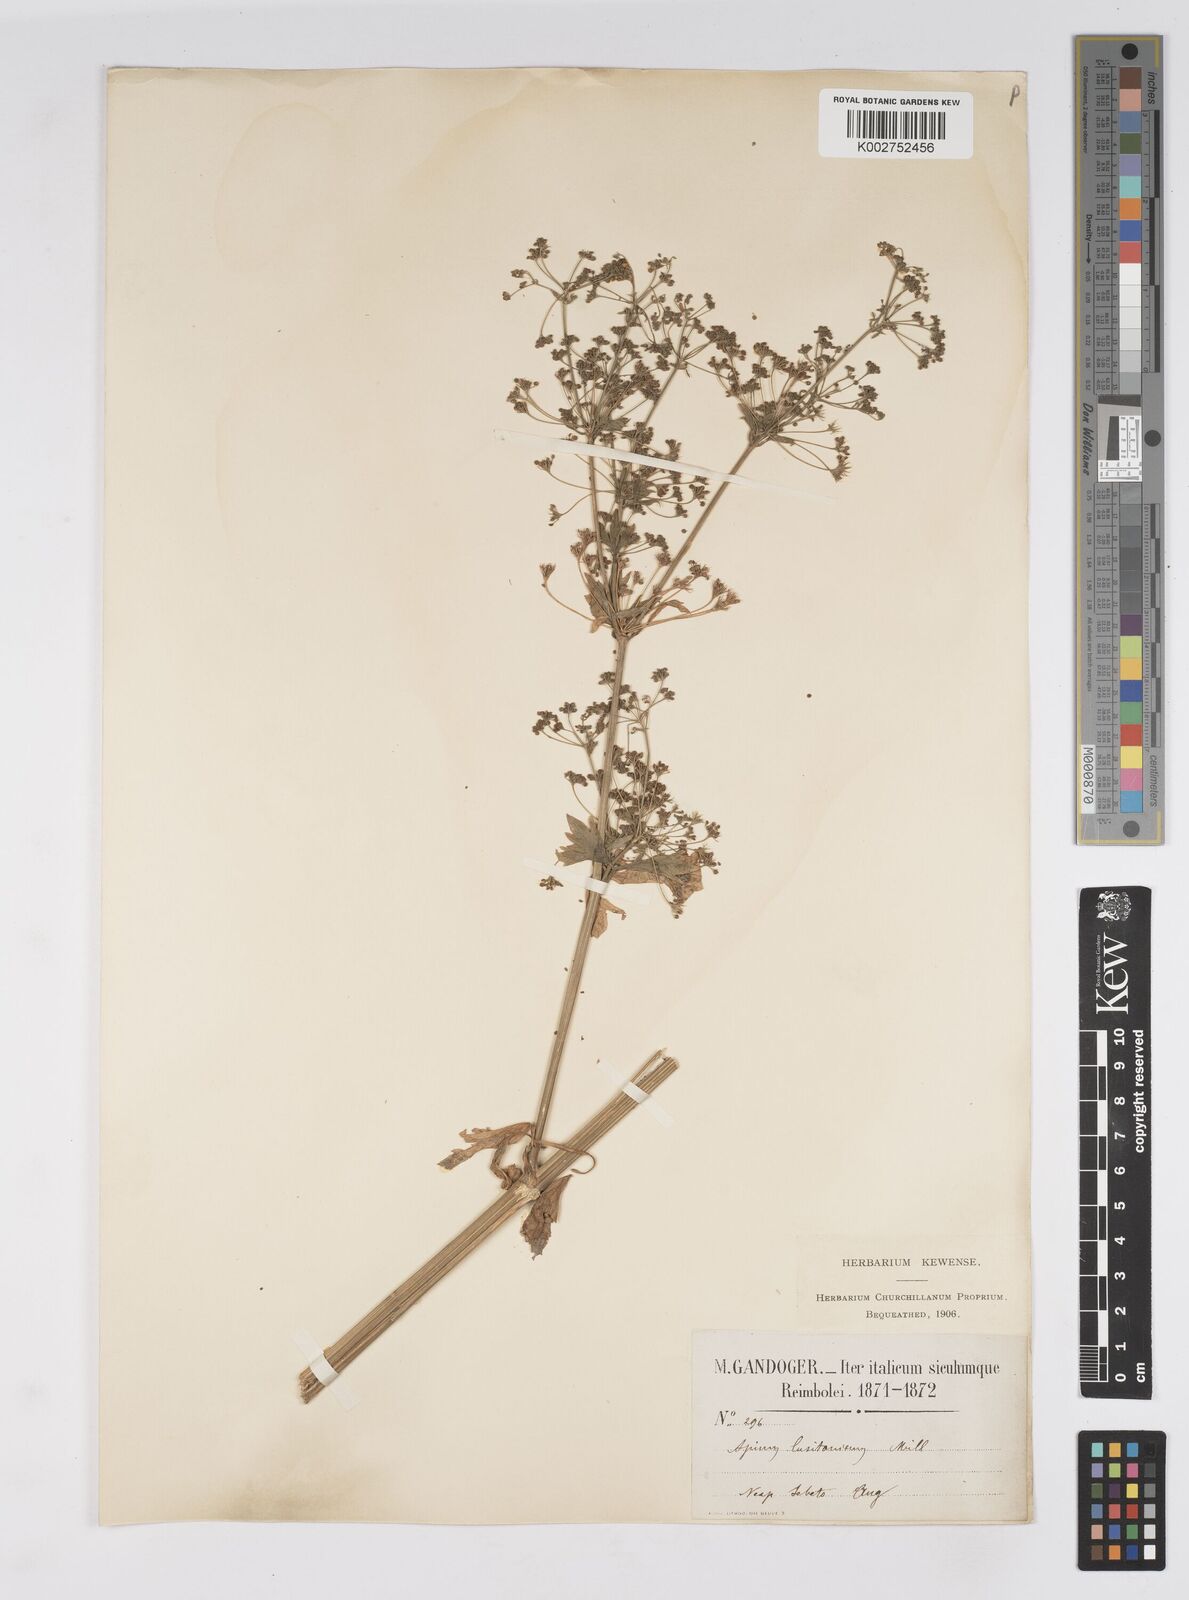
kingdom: Plantae
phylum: Tracheophyta
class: Magnoliopsida
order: Apiales
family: Apiaceae
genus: Apium
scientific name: Apium graveolens
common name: Wild celery
